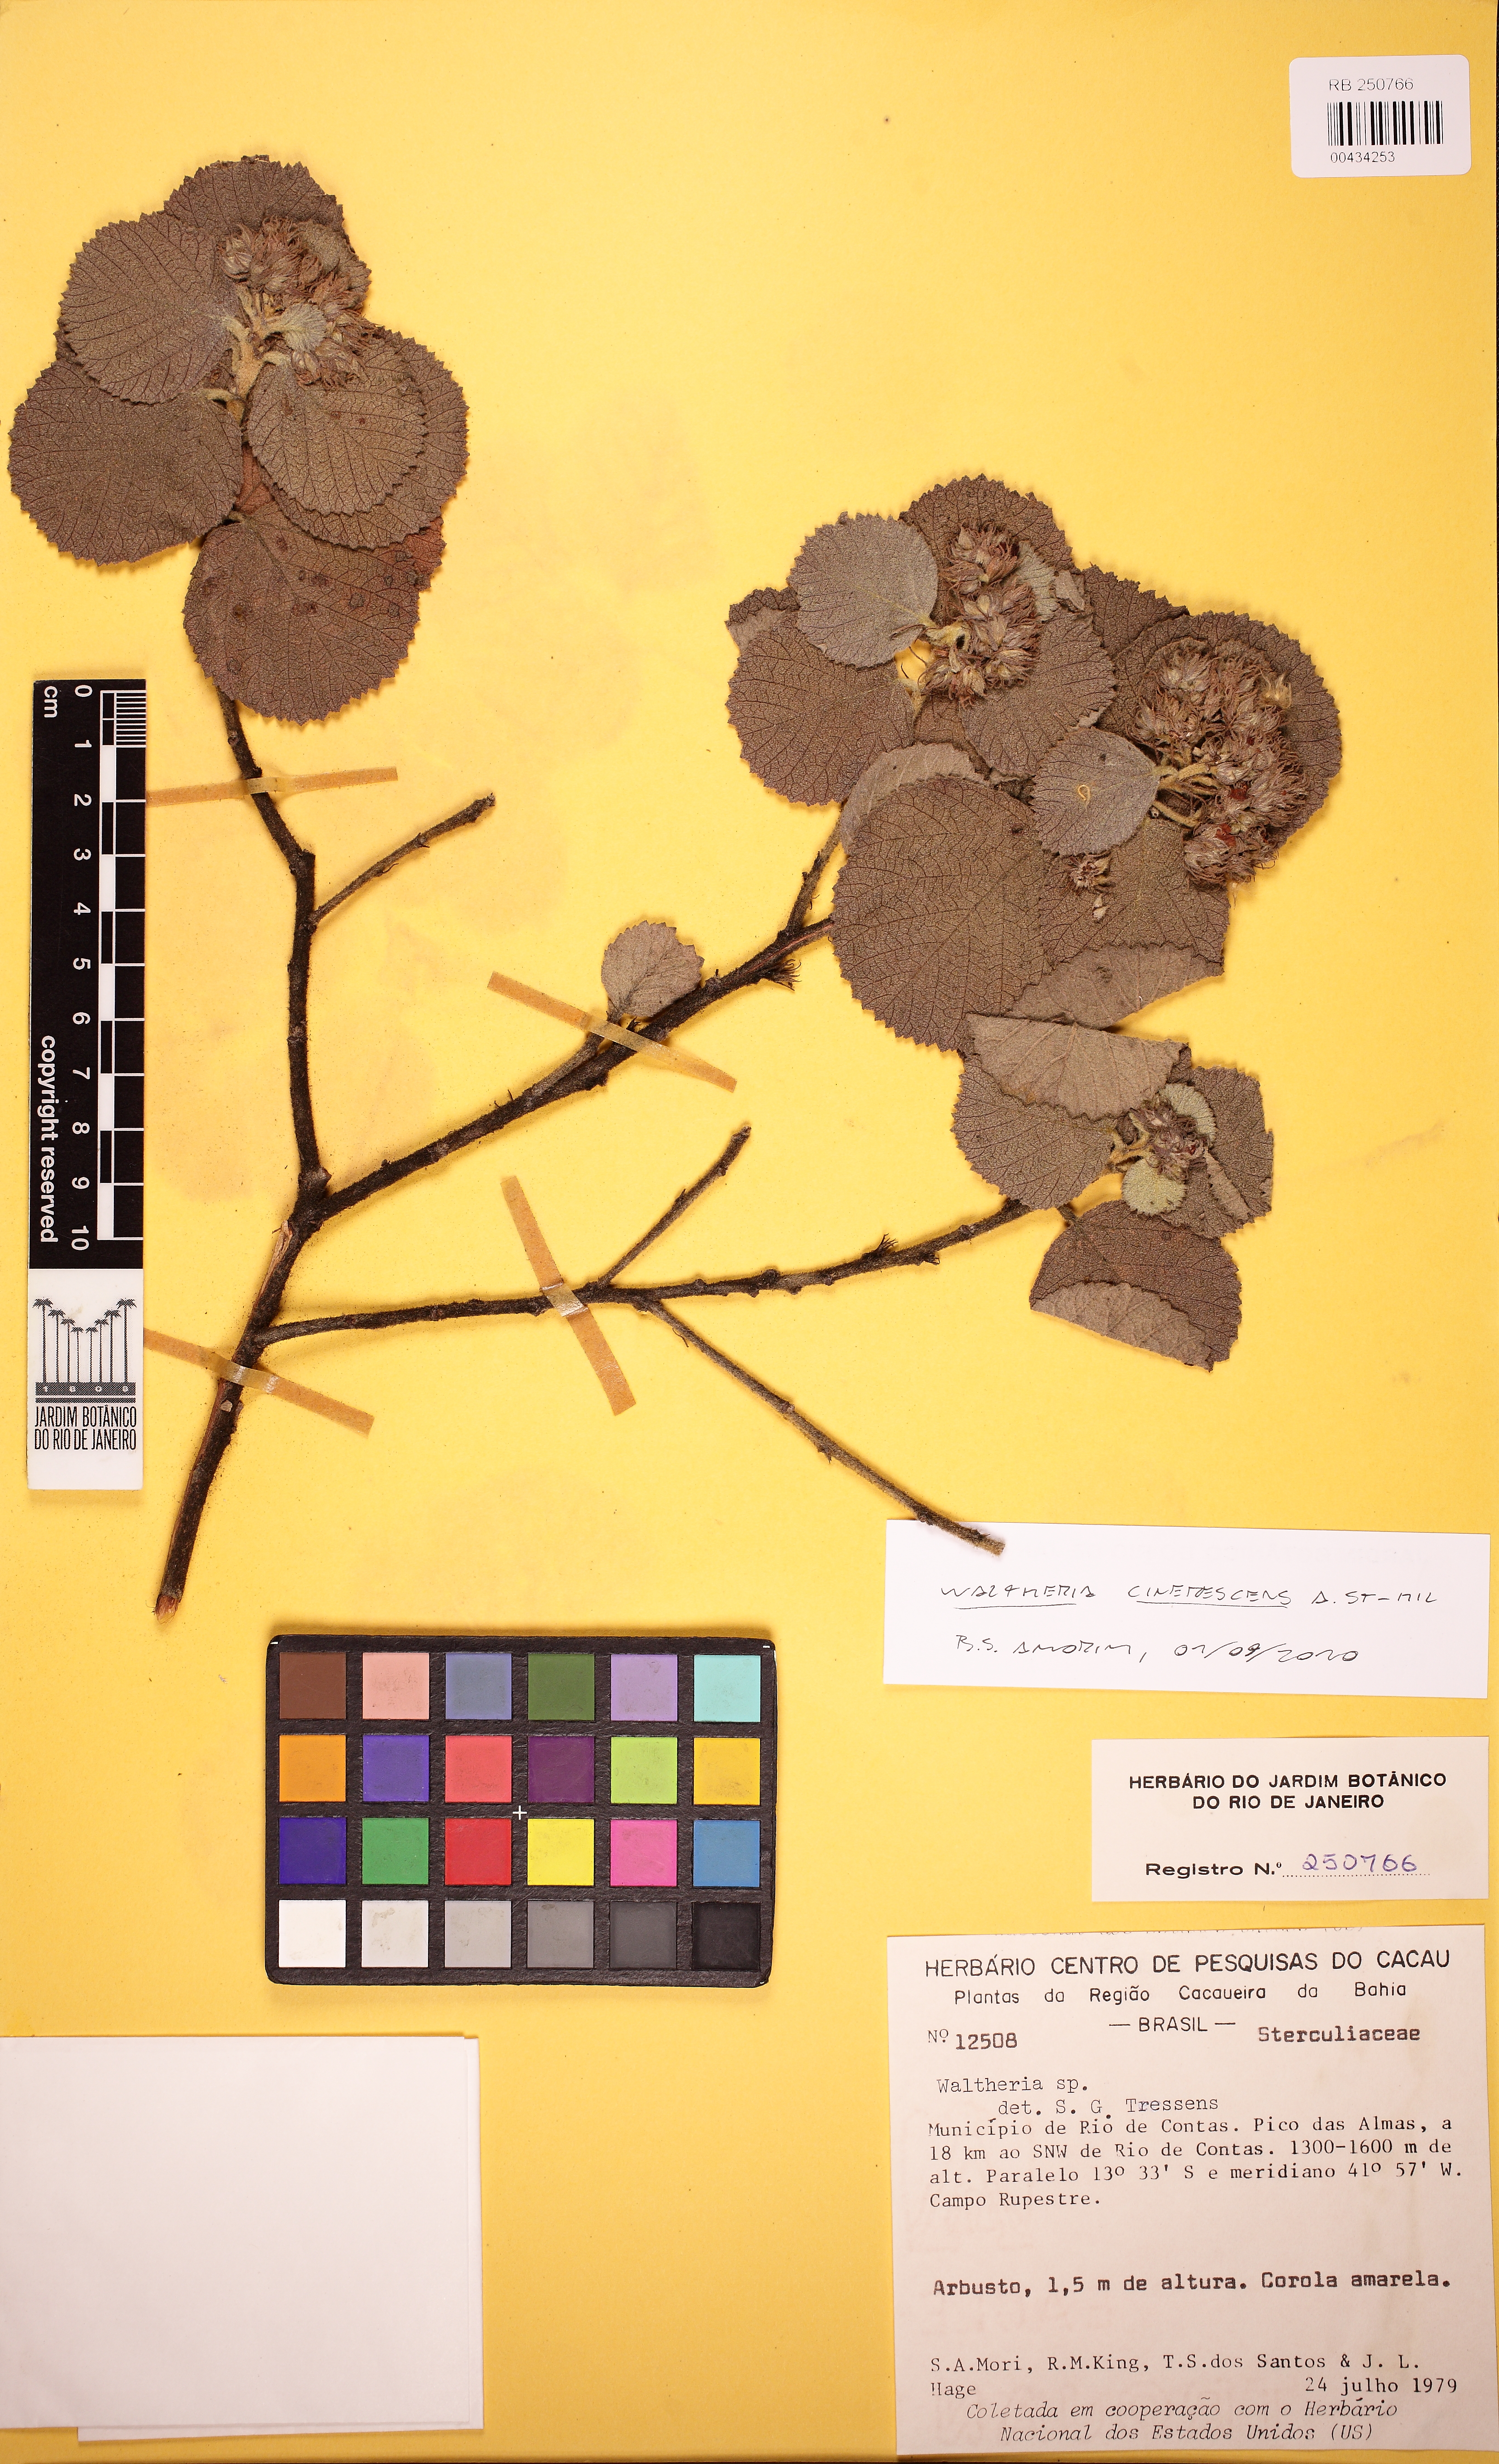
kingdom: Plantae
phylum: Tracheophyta
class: Magnoliopsida
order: Malvales
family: Malvaceae
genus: Waltheria
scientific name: Waltheria cinerascens
